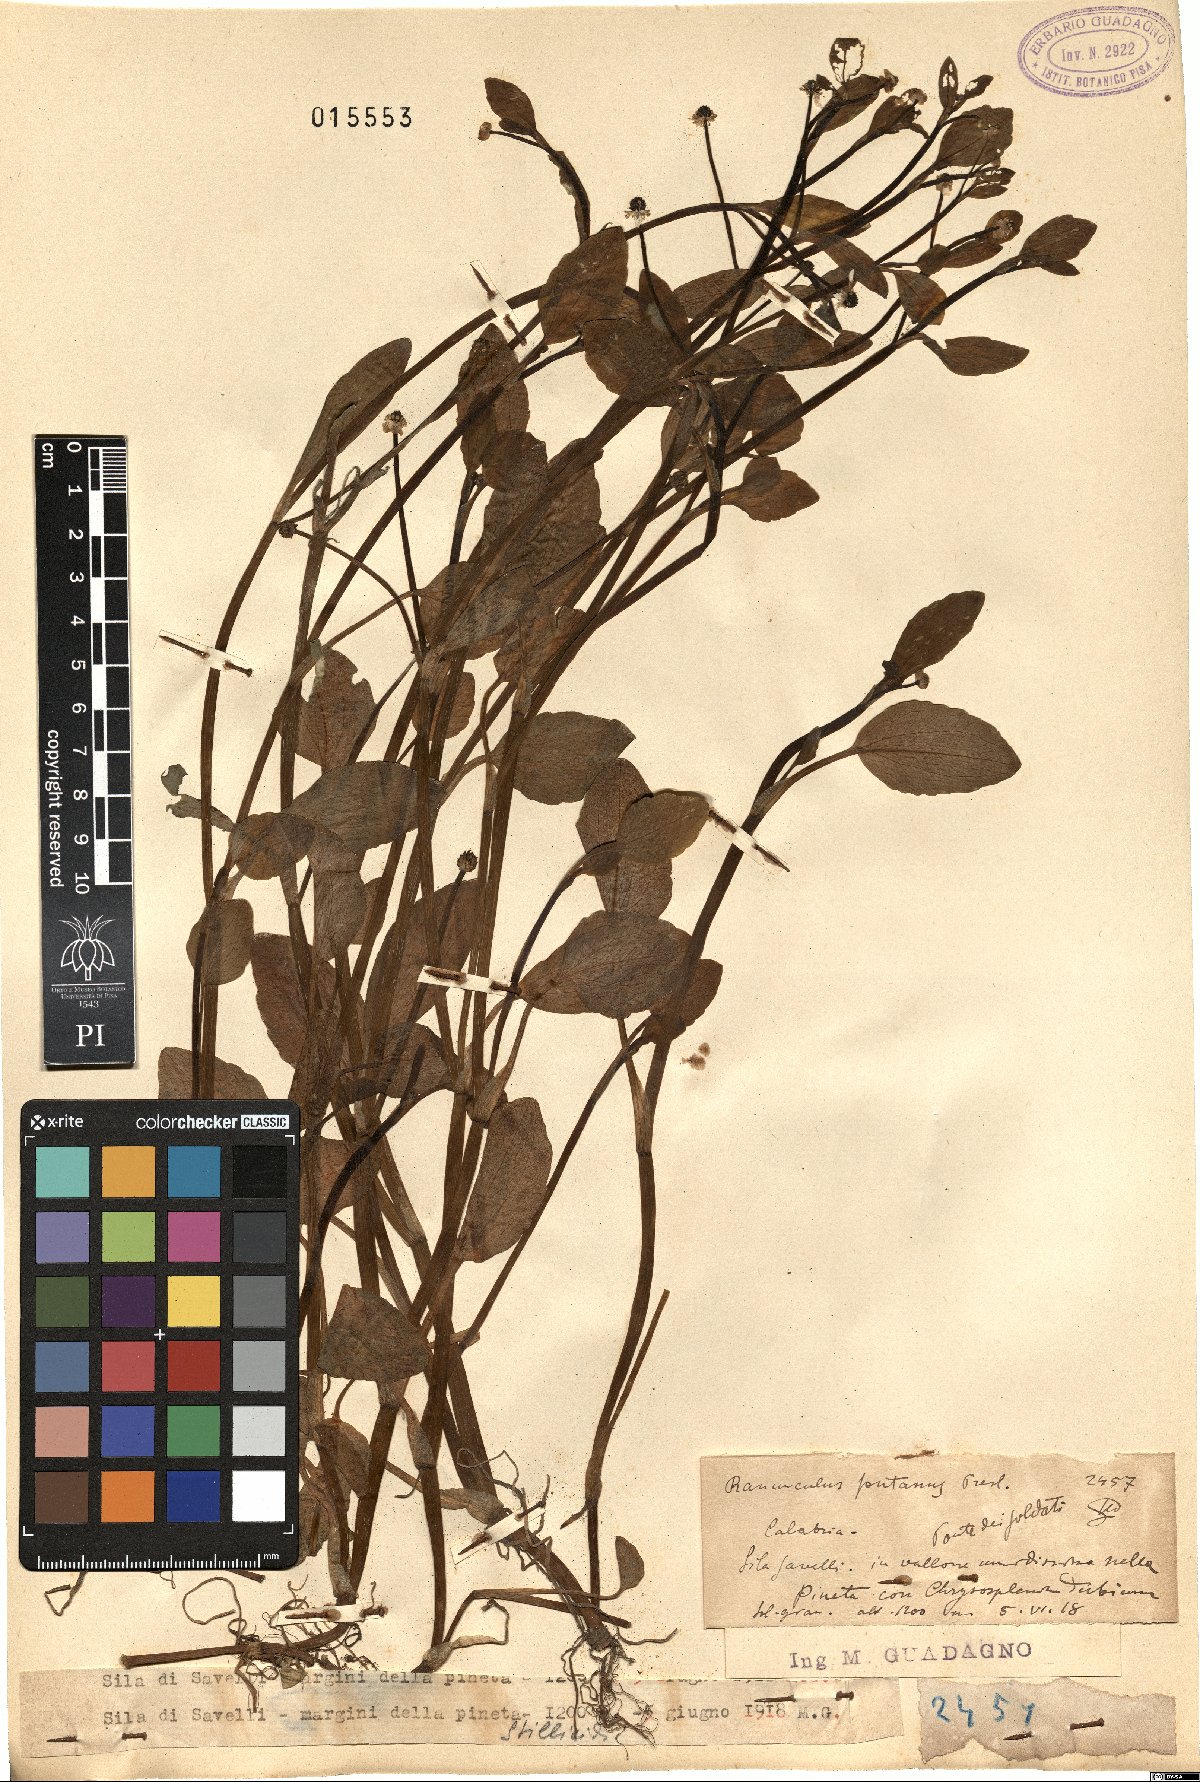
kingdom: Plantae
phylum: Tracheophyta
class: Magnoliopsida
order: Ranunculales
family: Ranunculaceae
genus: Ranunculus
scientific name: Ranunculus fontanus
